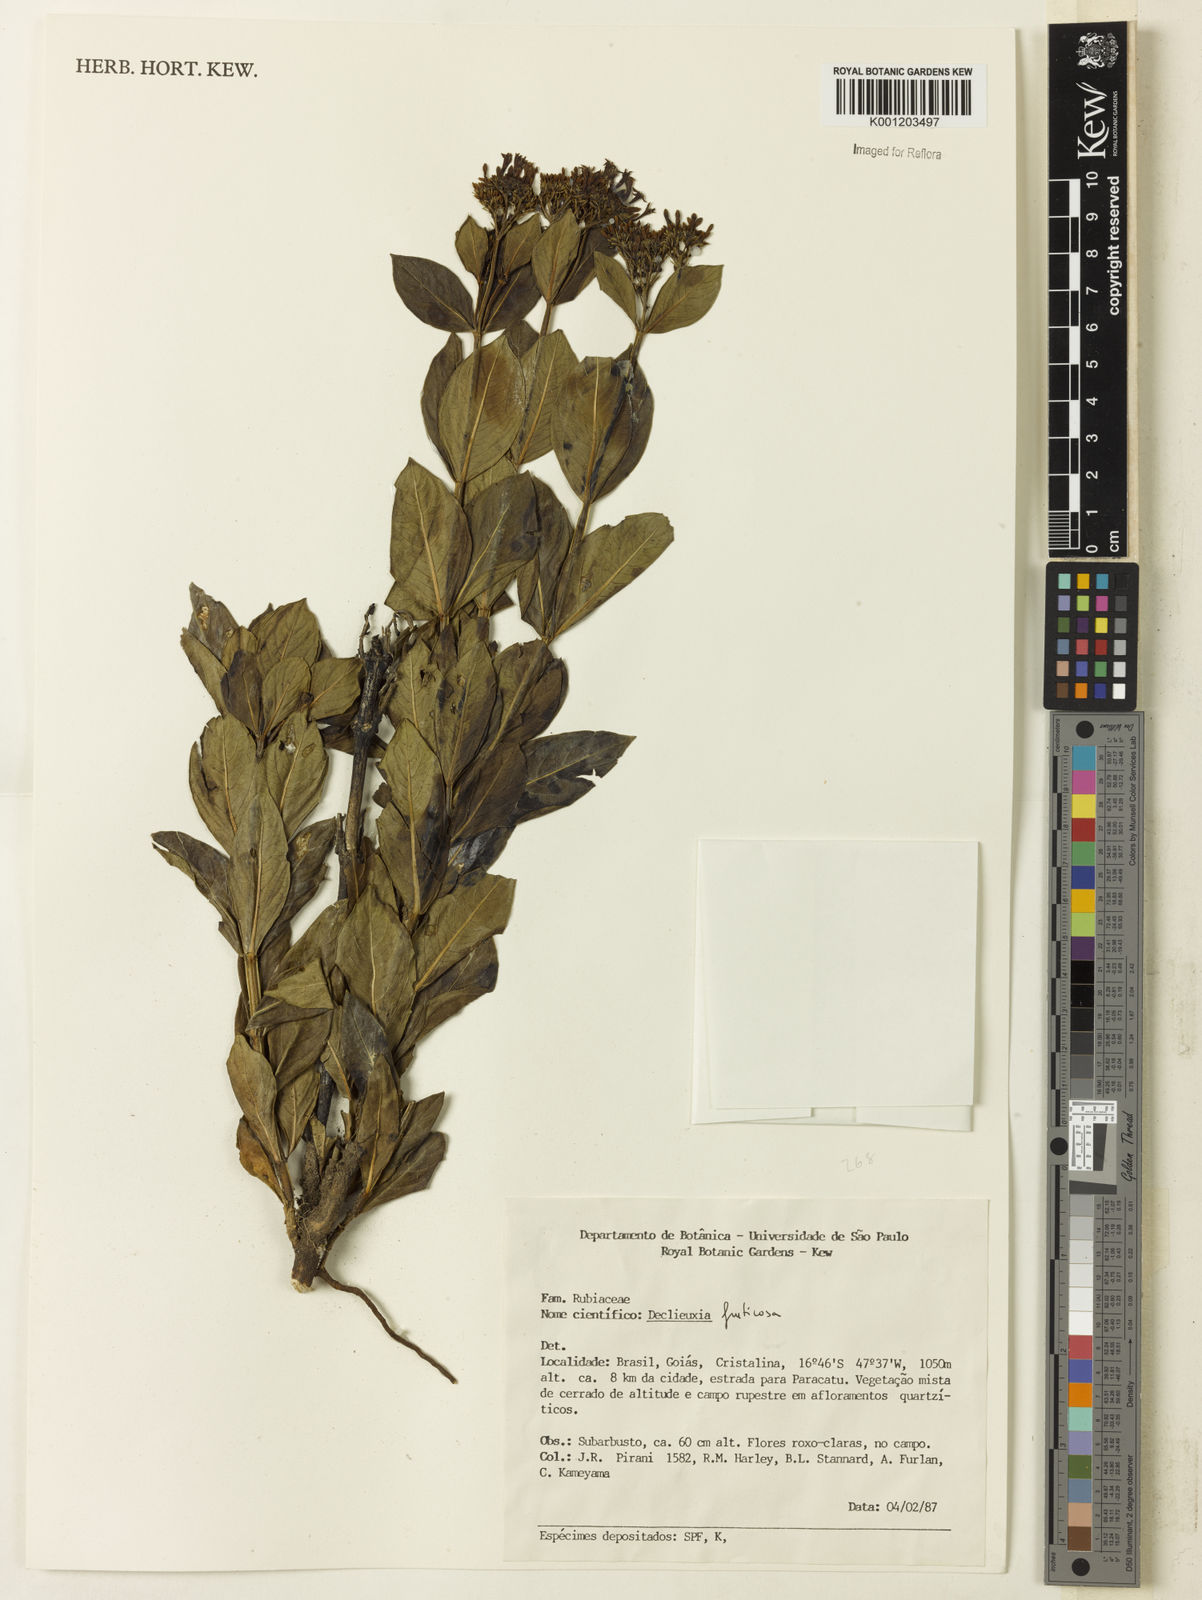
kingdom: Plantae
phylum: Tracheophyta
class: Magnoliopsida
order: Gentianales
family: Rubiaceae
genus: Declieuxia
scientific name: Declieuxia fruticosa
